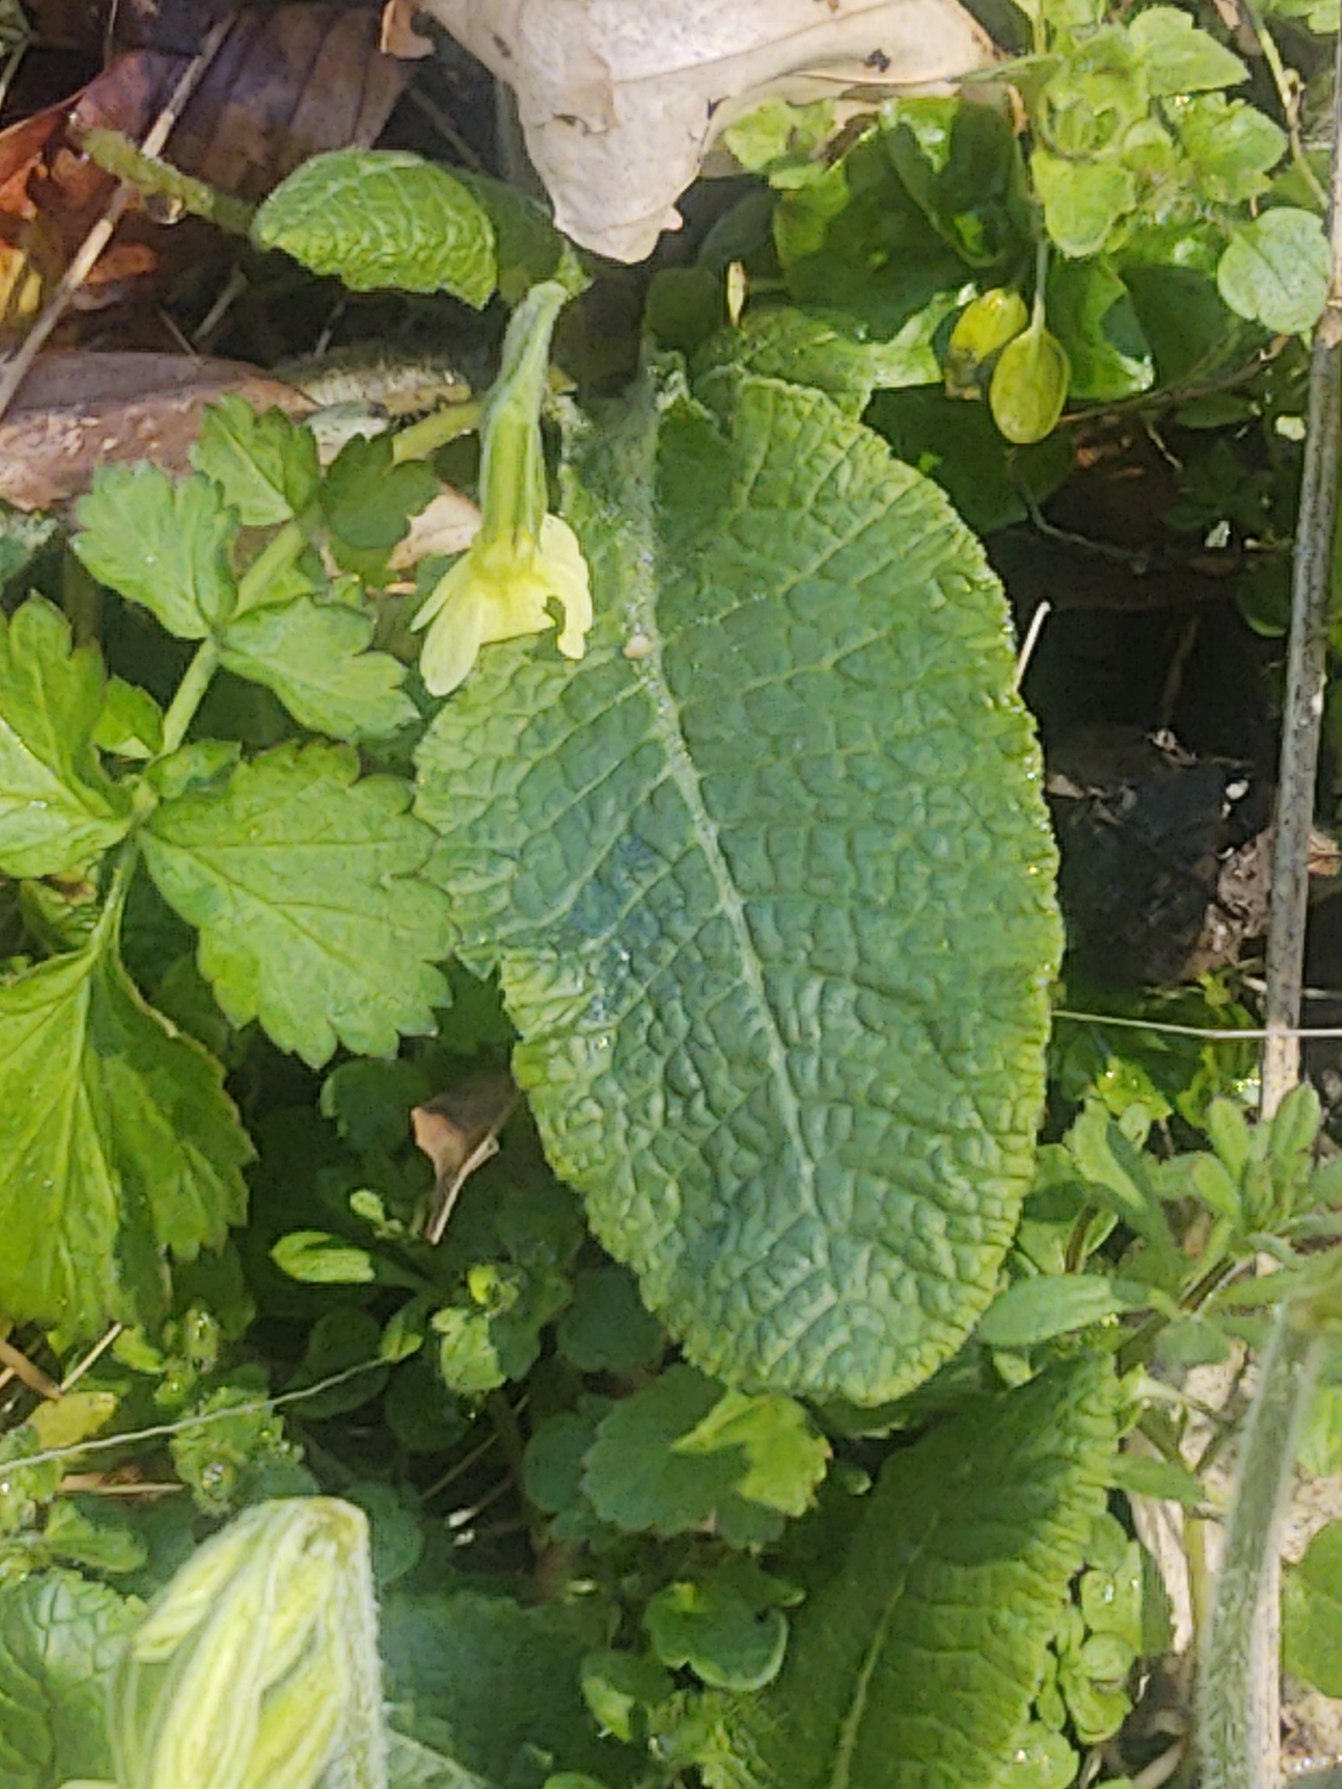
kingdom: Plantae
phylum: Tracheophyta
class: Magnoliopsida
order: Ericales
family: Primulaceae
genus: Primula
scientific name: Primula elatior
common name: Fladkravet kodriver
